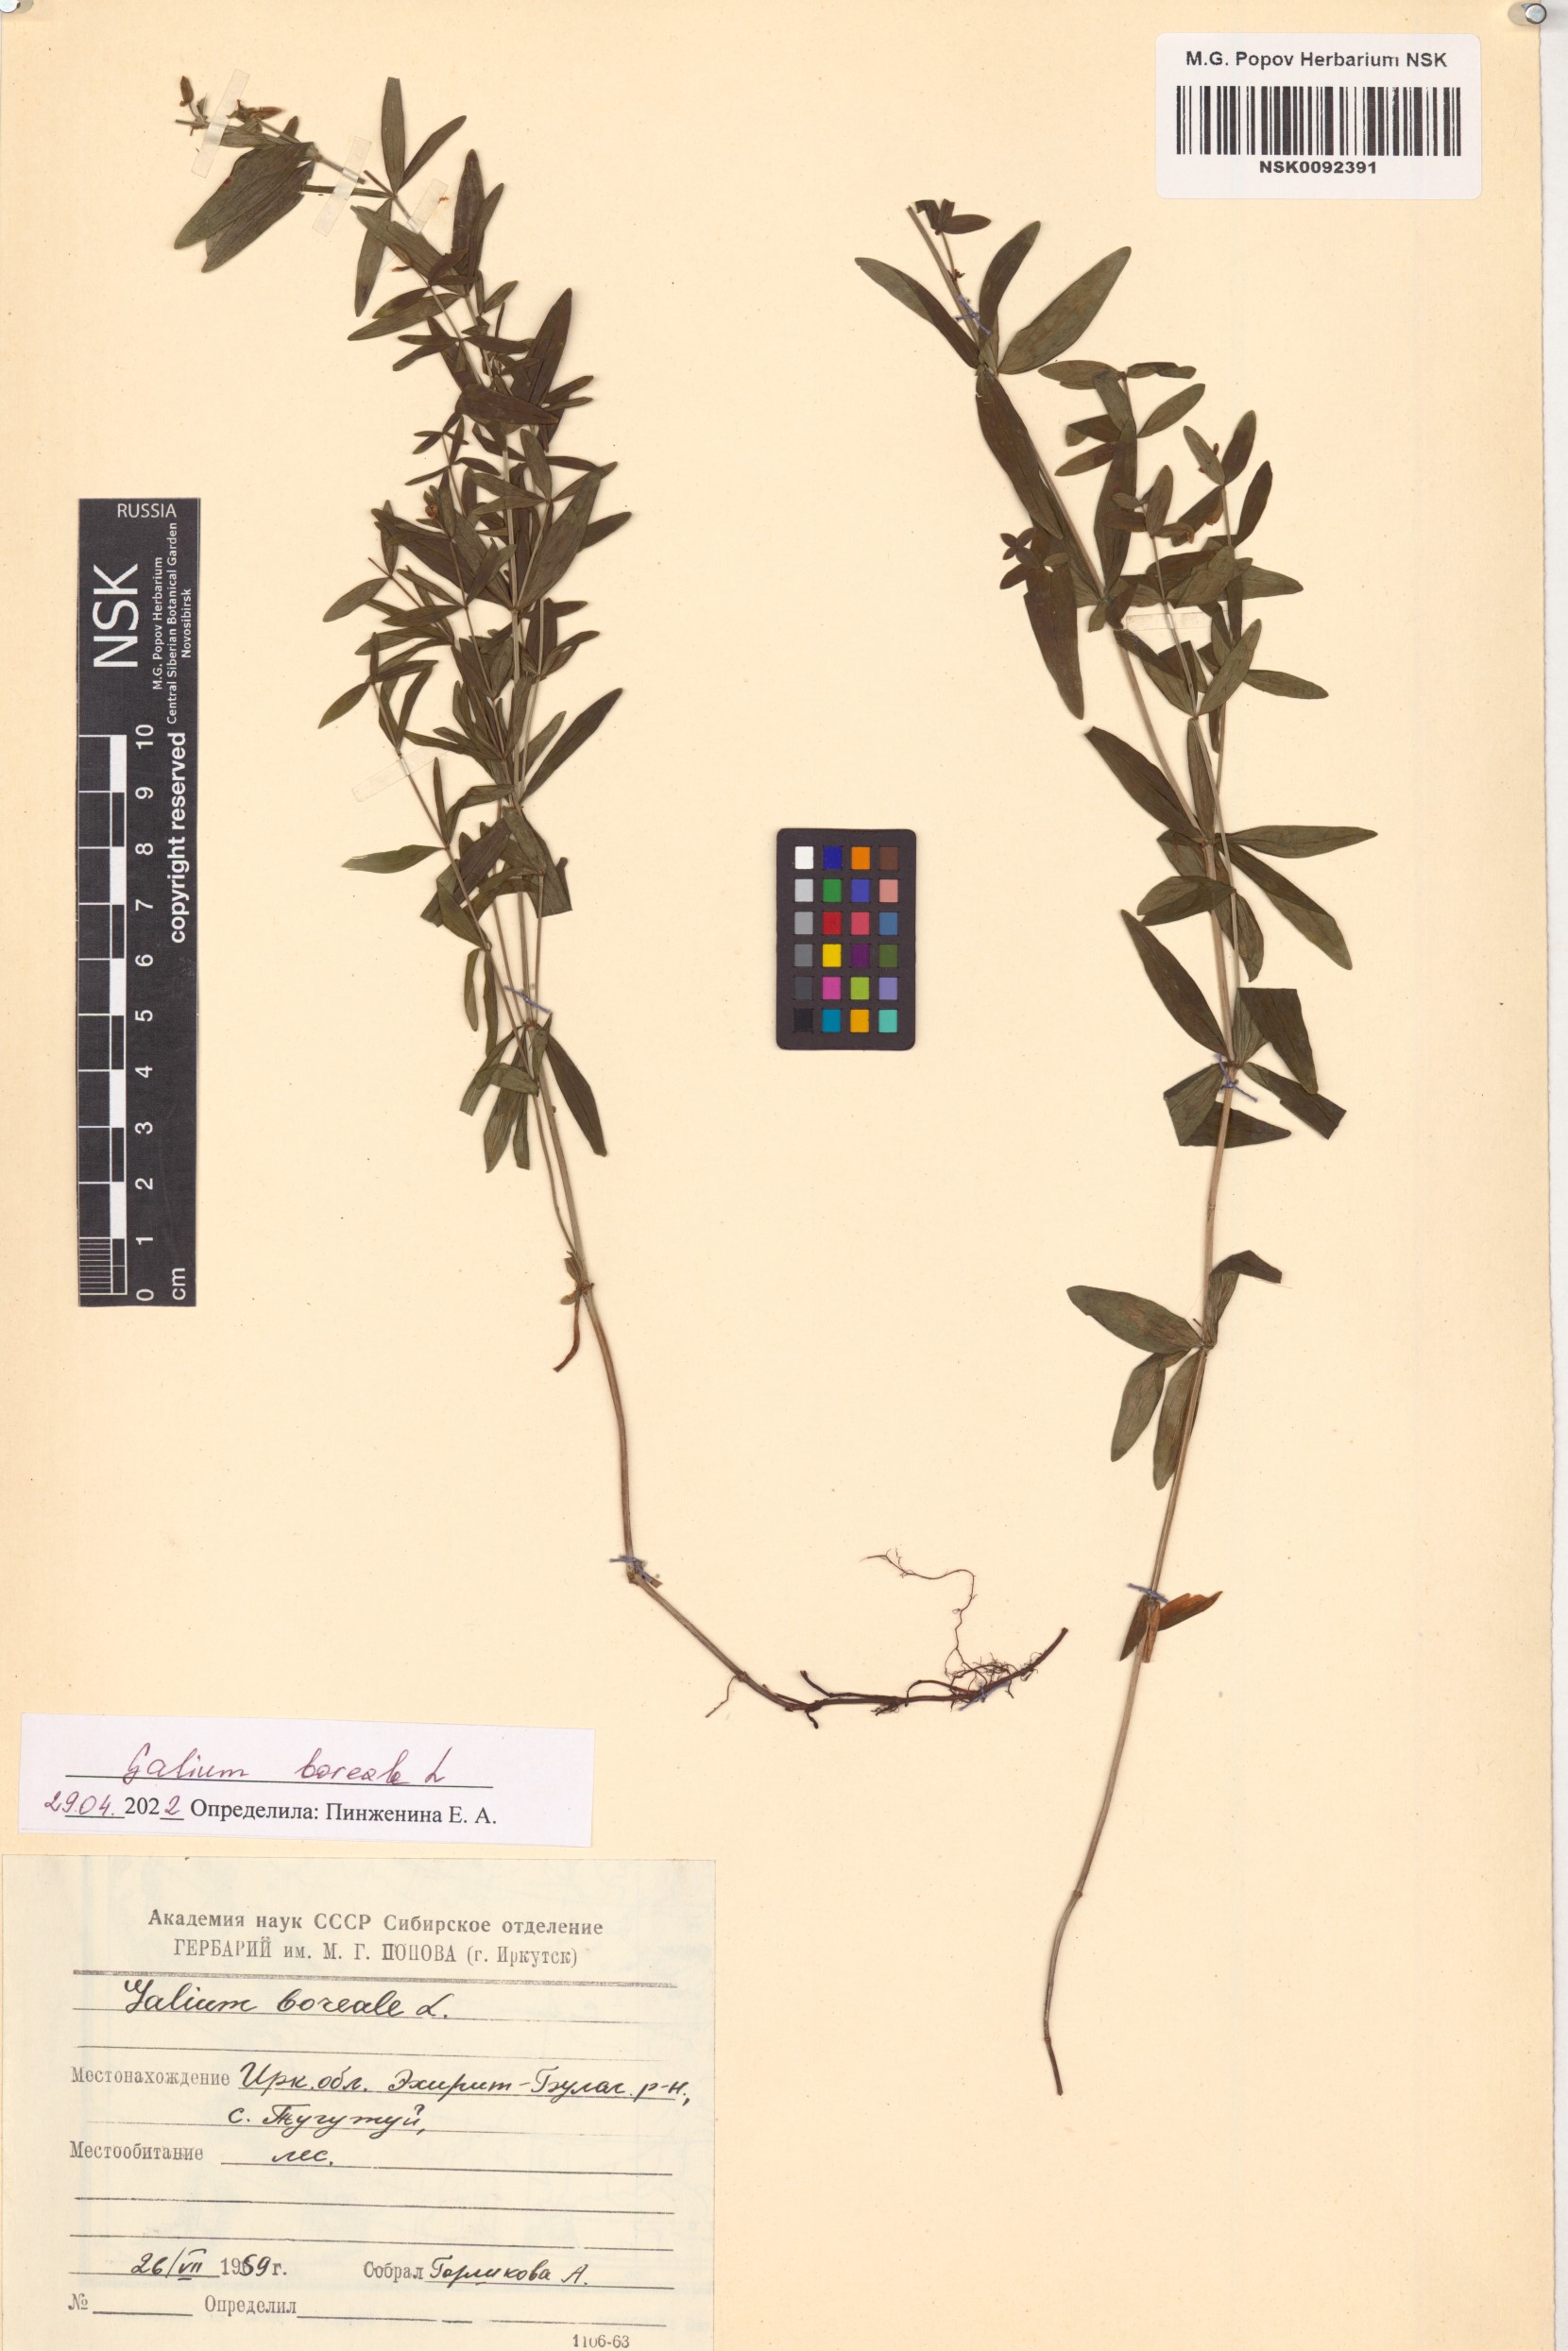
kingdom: Plantae
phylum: Tracheophyta
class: Magnoliopsida
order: Gentianales
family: Rubiaceae
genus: Galium
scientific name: Galium boreale
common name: Northern bedstraw
